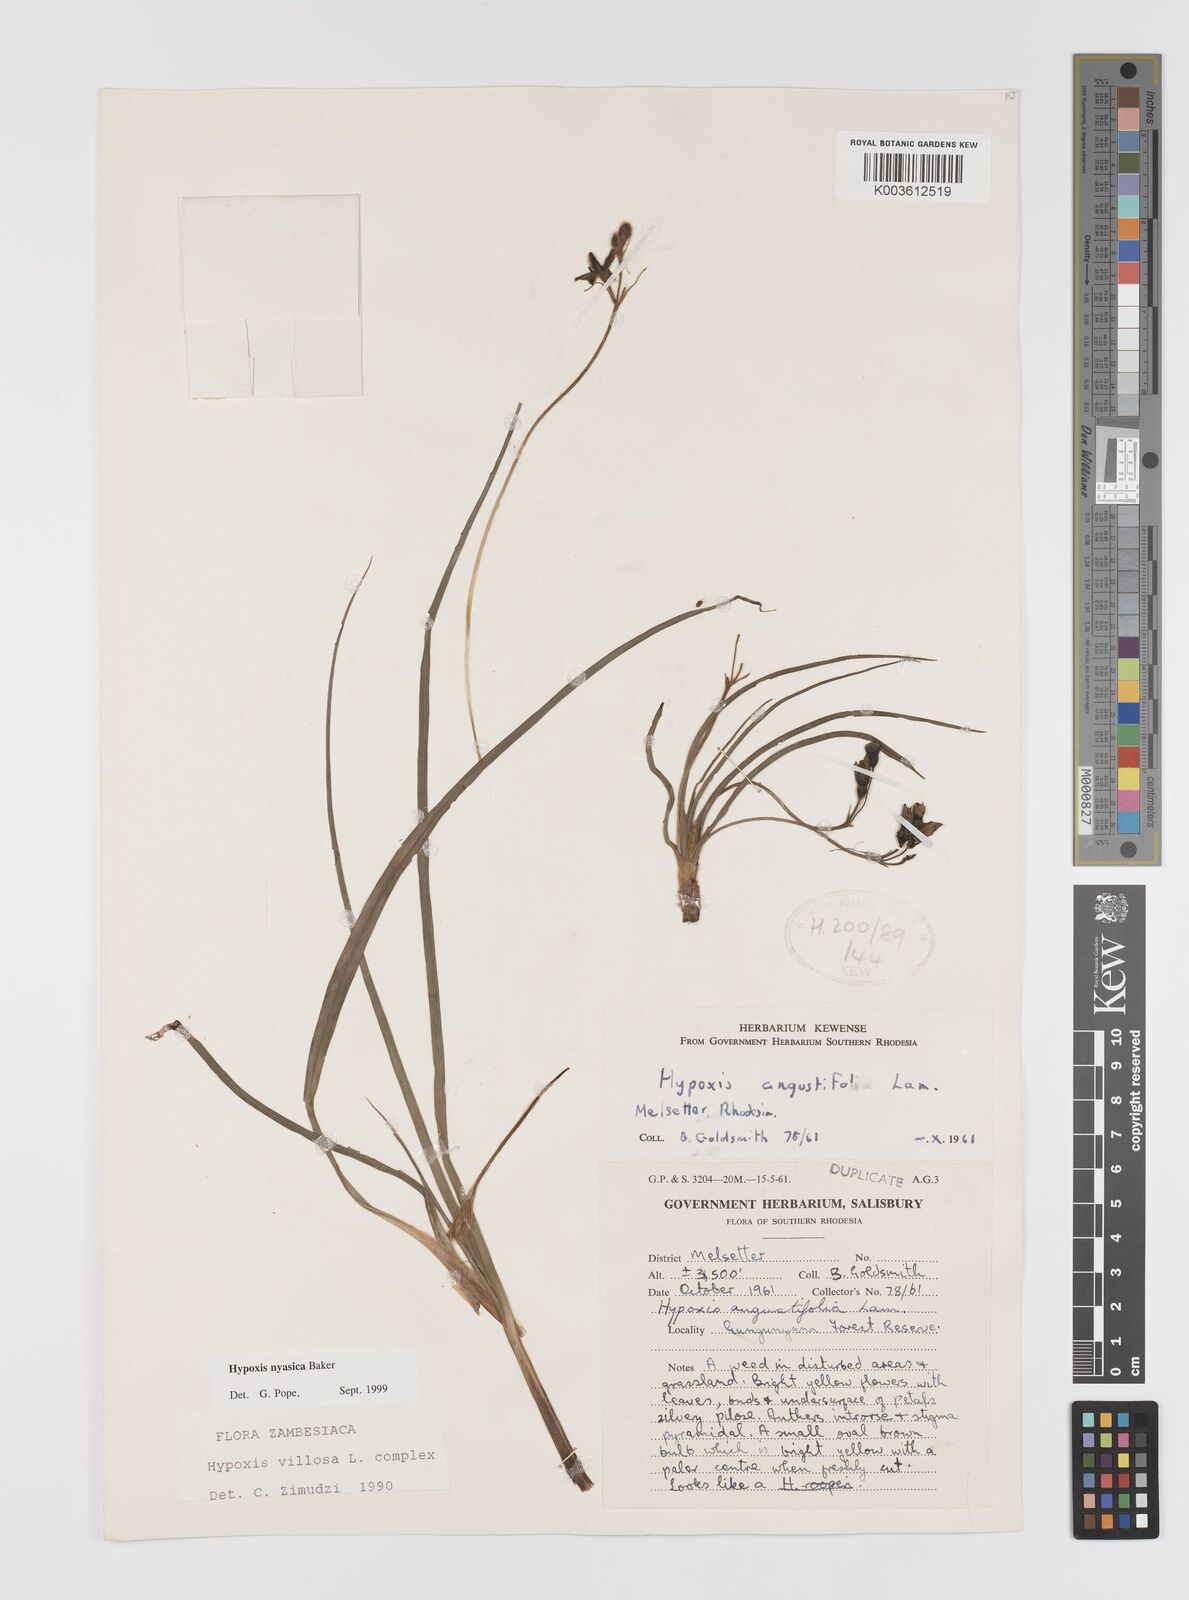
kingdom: Plantae
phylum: Tracheophyta
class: Liliopsida
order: Asparagales
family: Hypoxidaceae
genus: Hypoxis
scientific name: Hypoxis nyasica
